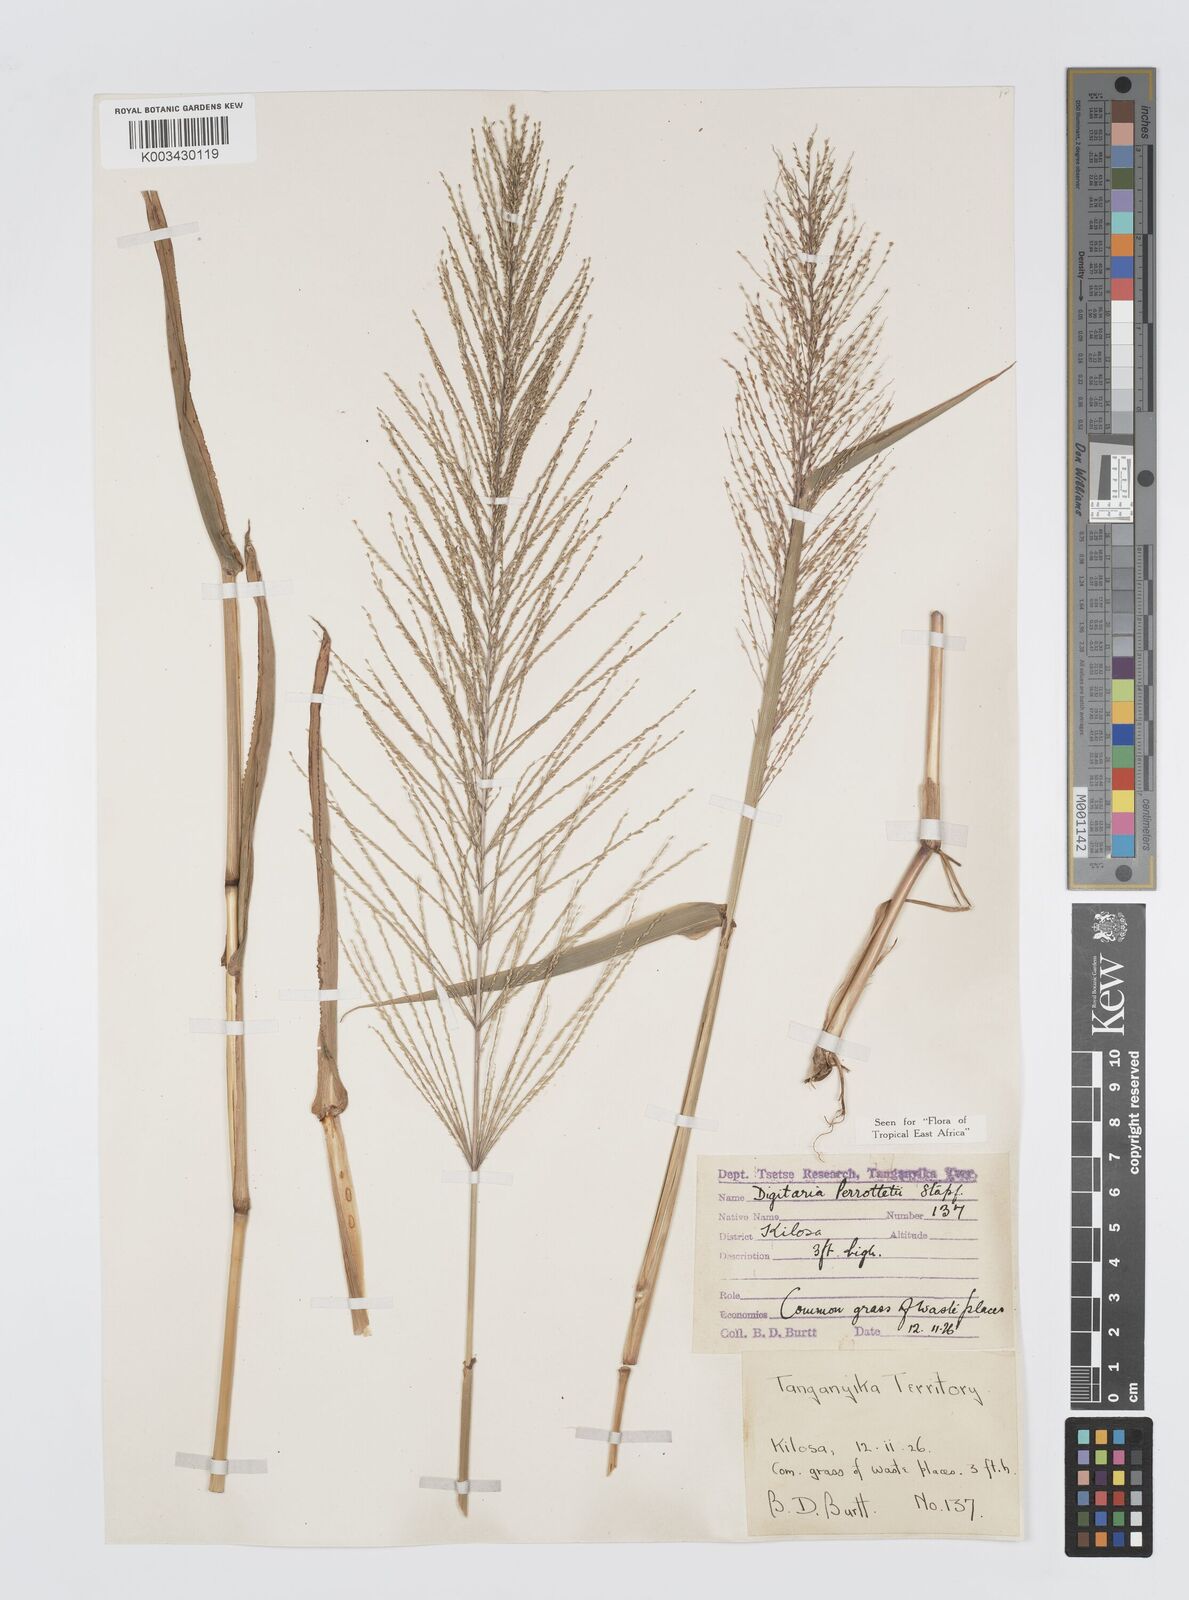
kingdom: Plantae
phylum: Tracheophyta
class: Liliopsida
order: Poales
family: Poaceae
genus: Digitaria
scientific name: Digitaria perrottetii
